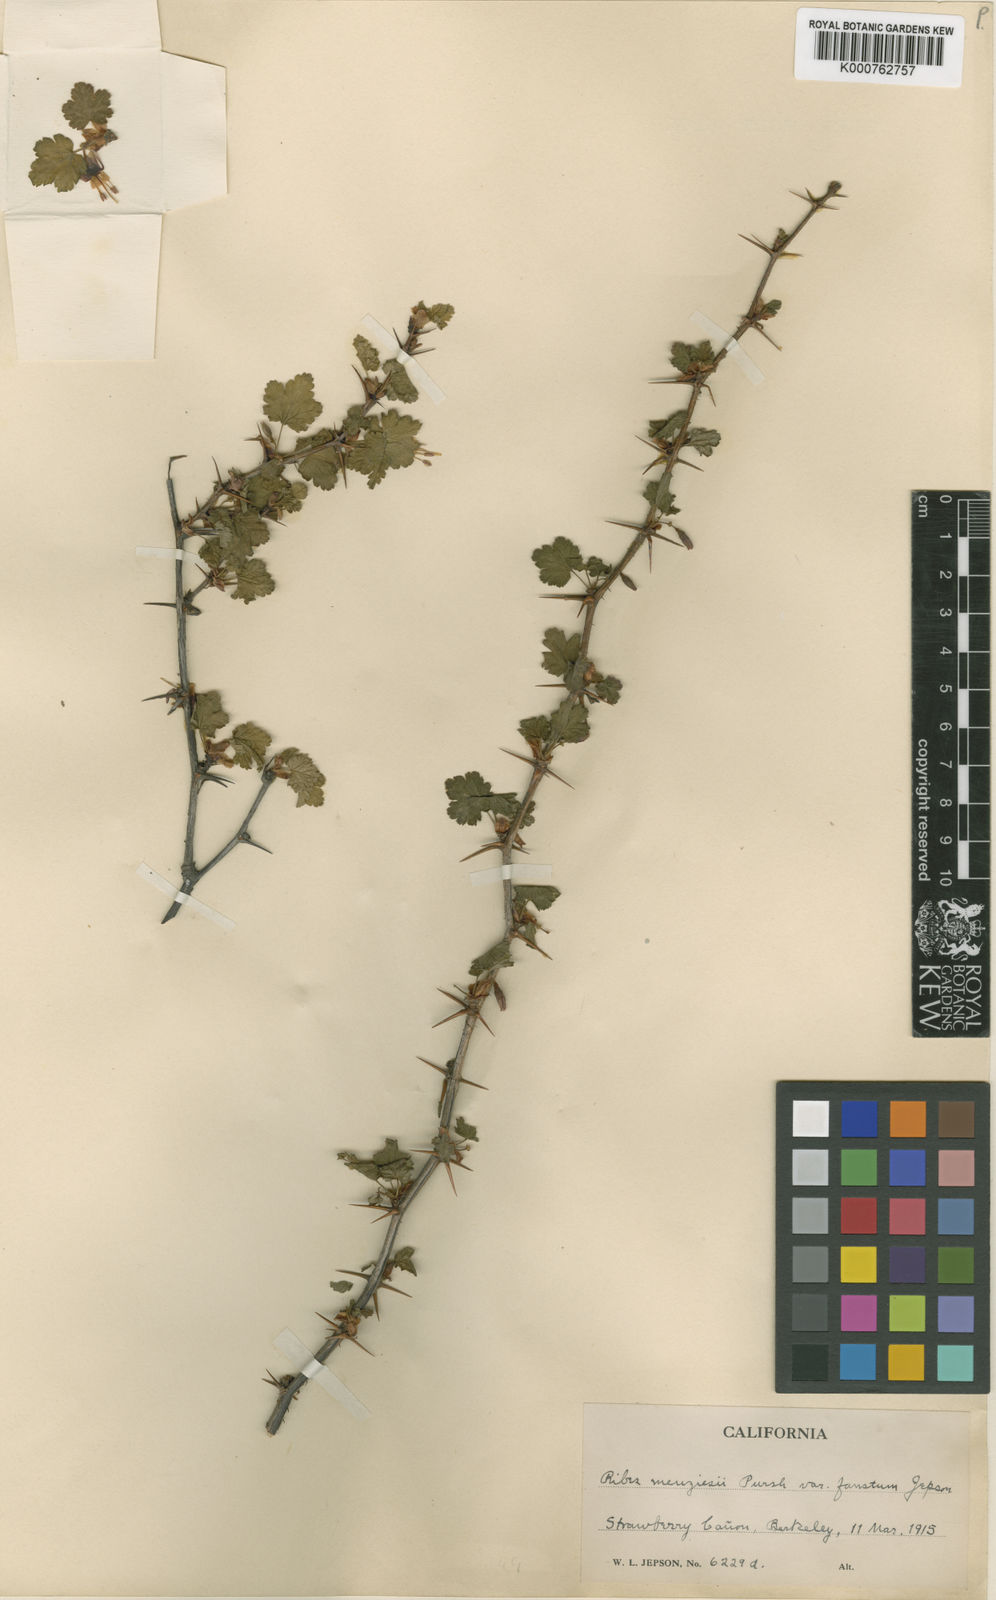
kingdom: Plantae
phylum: Tracheophyta
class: Magnoliopsida
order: Saxifragales
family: Grossulariaceae
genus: Ribes
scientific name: Ribes menziesii
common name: Canyon gooseberry
